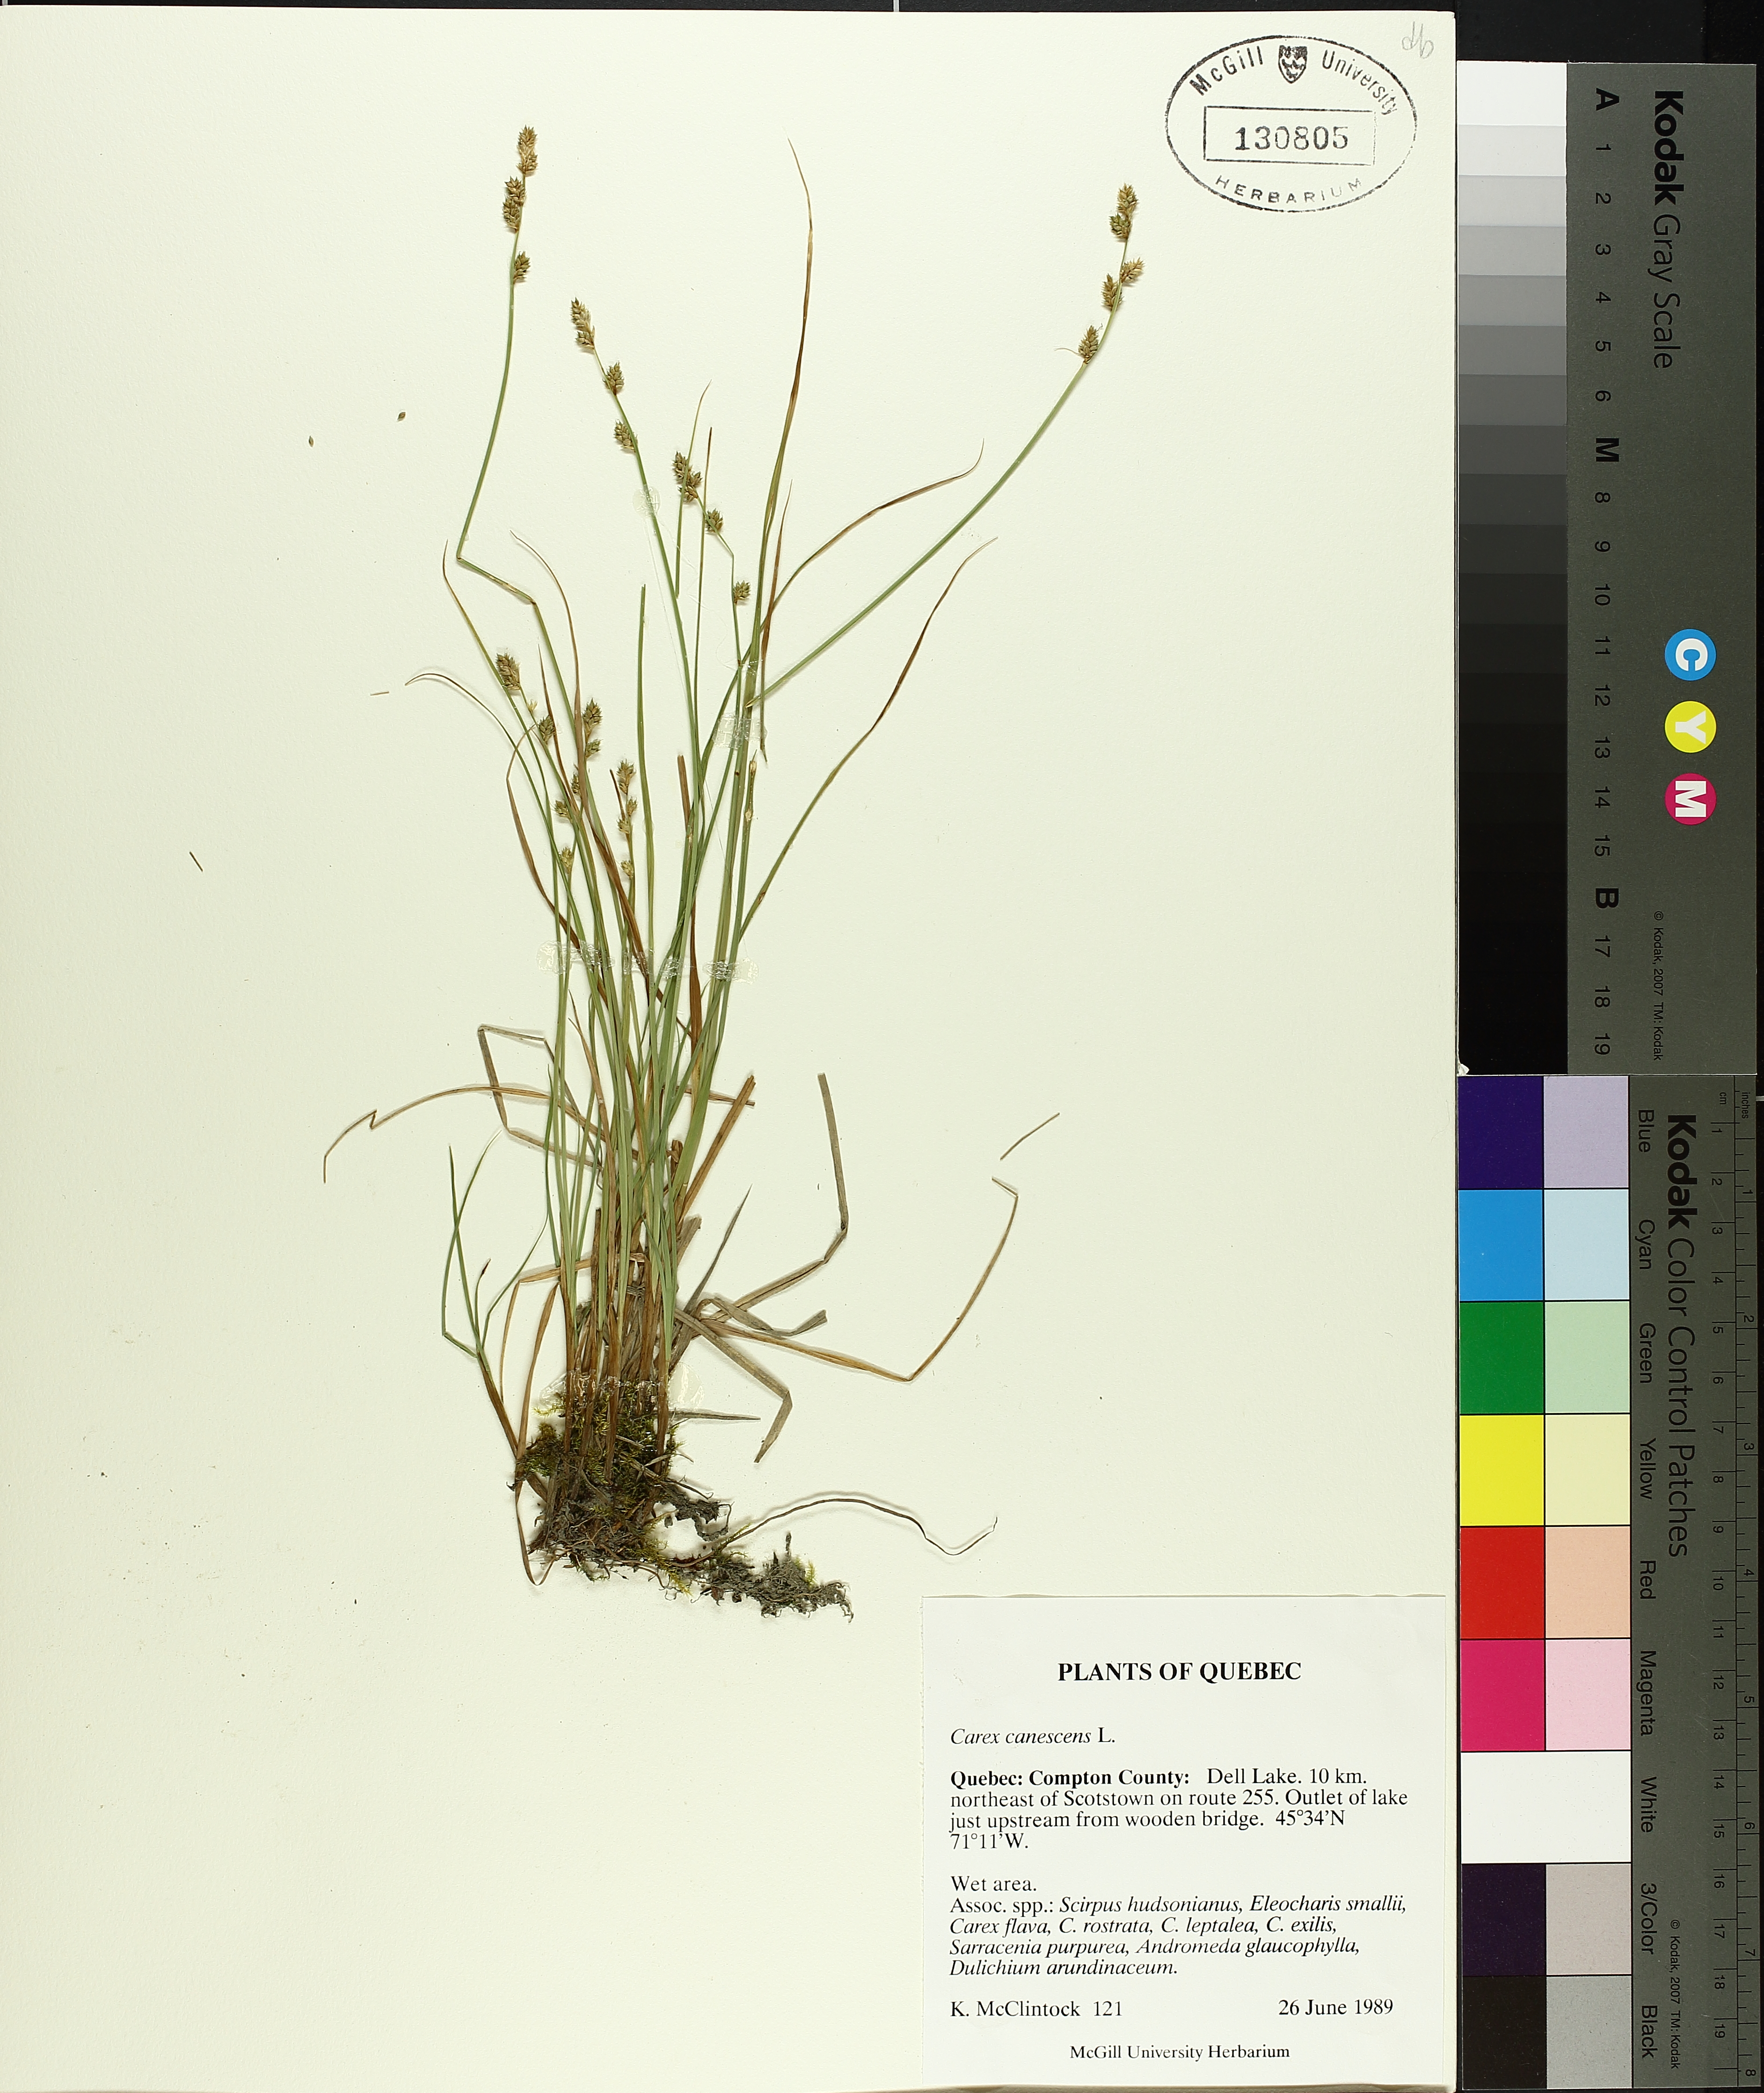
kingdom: Plantae
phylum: Tracheophyta
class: Liliopsida
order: Poales
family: Cyperaceae
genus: Carex
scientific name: Carex canescens
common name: White sedge
